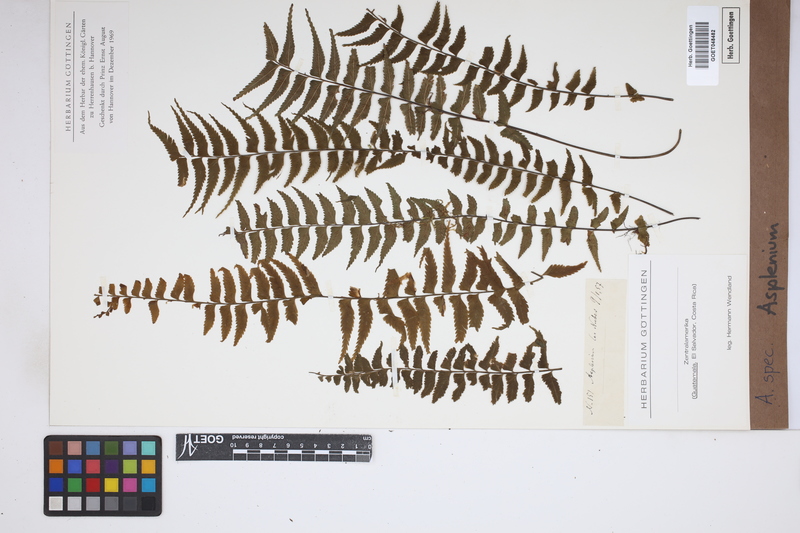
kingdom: Plantae
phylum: Tracheophyta
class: Polypodiopsida
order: Polypodiales
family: Aspleniaceae
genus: Asplenium
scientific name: Asplenium
